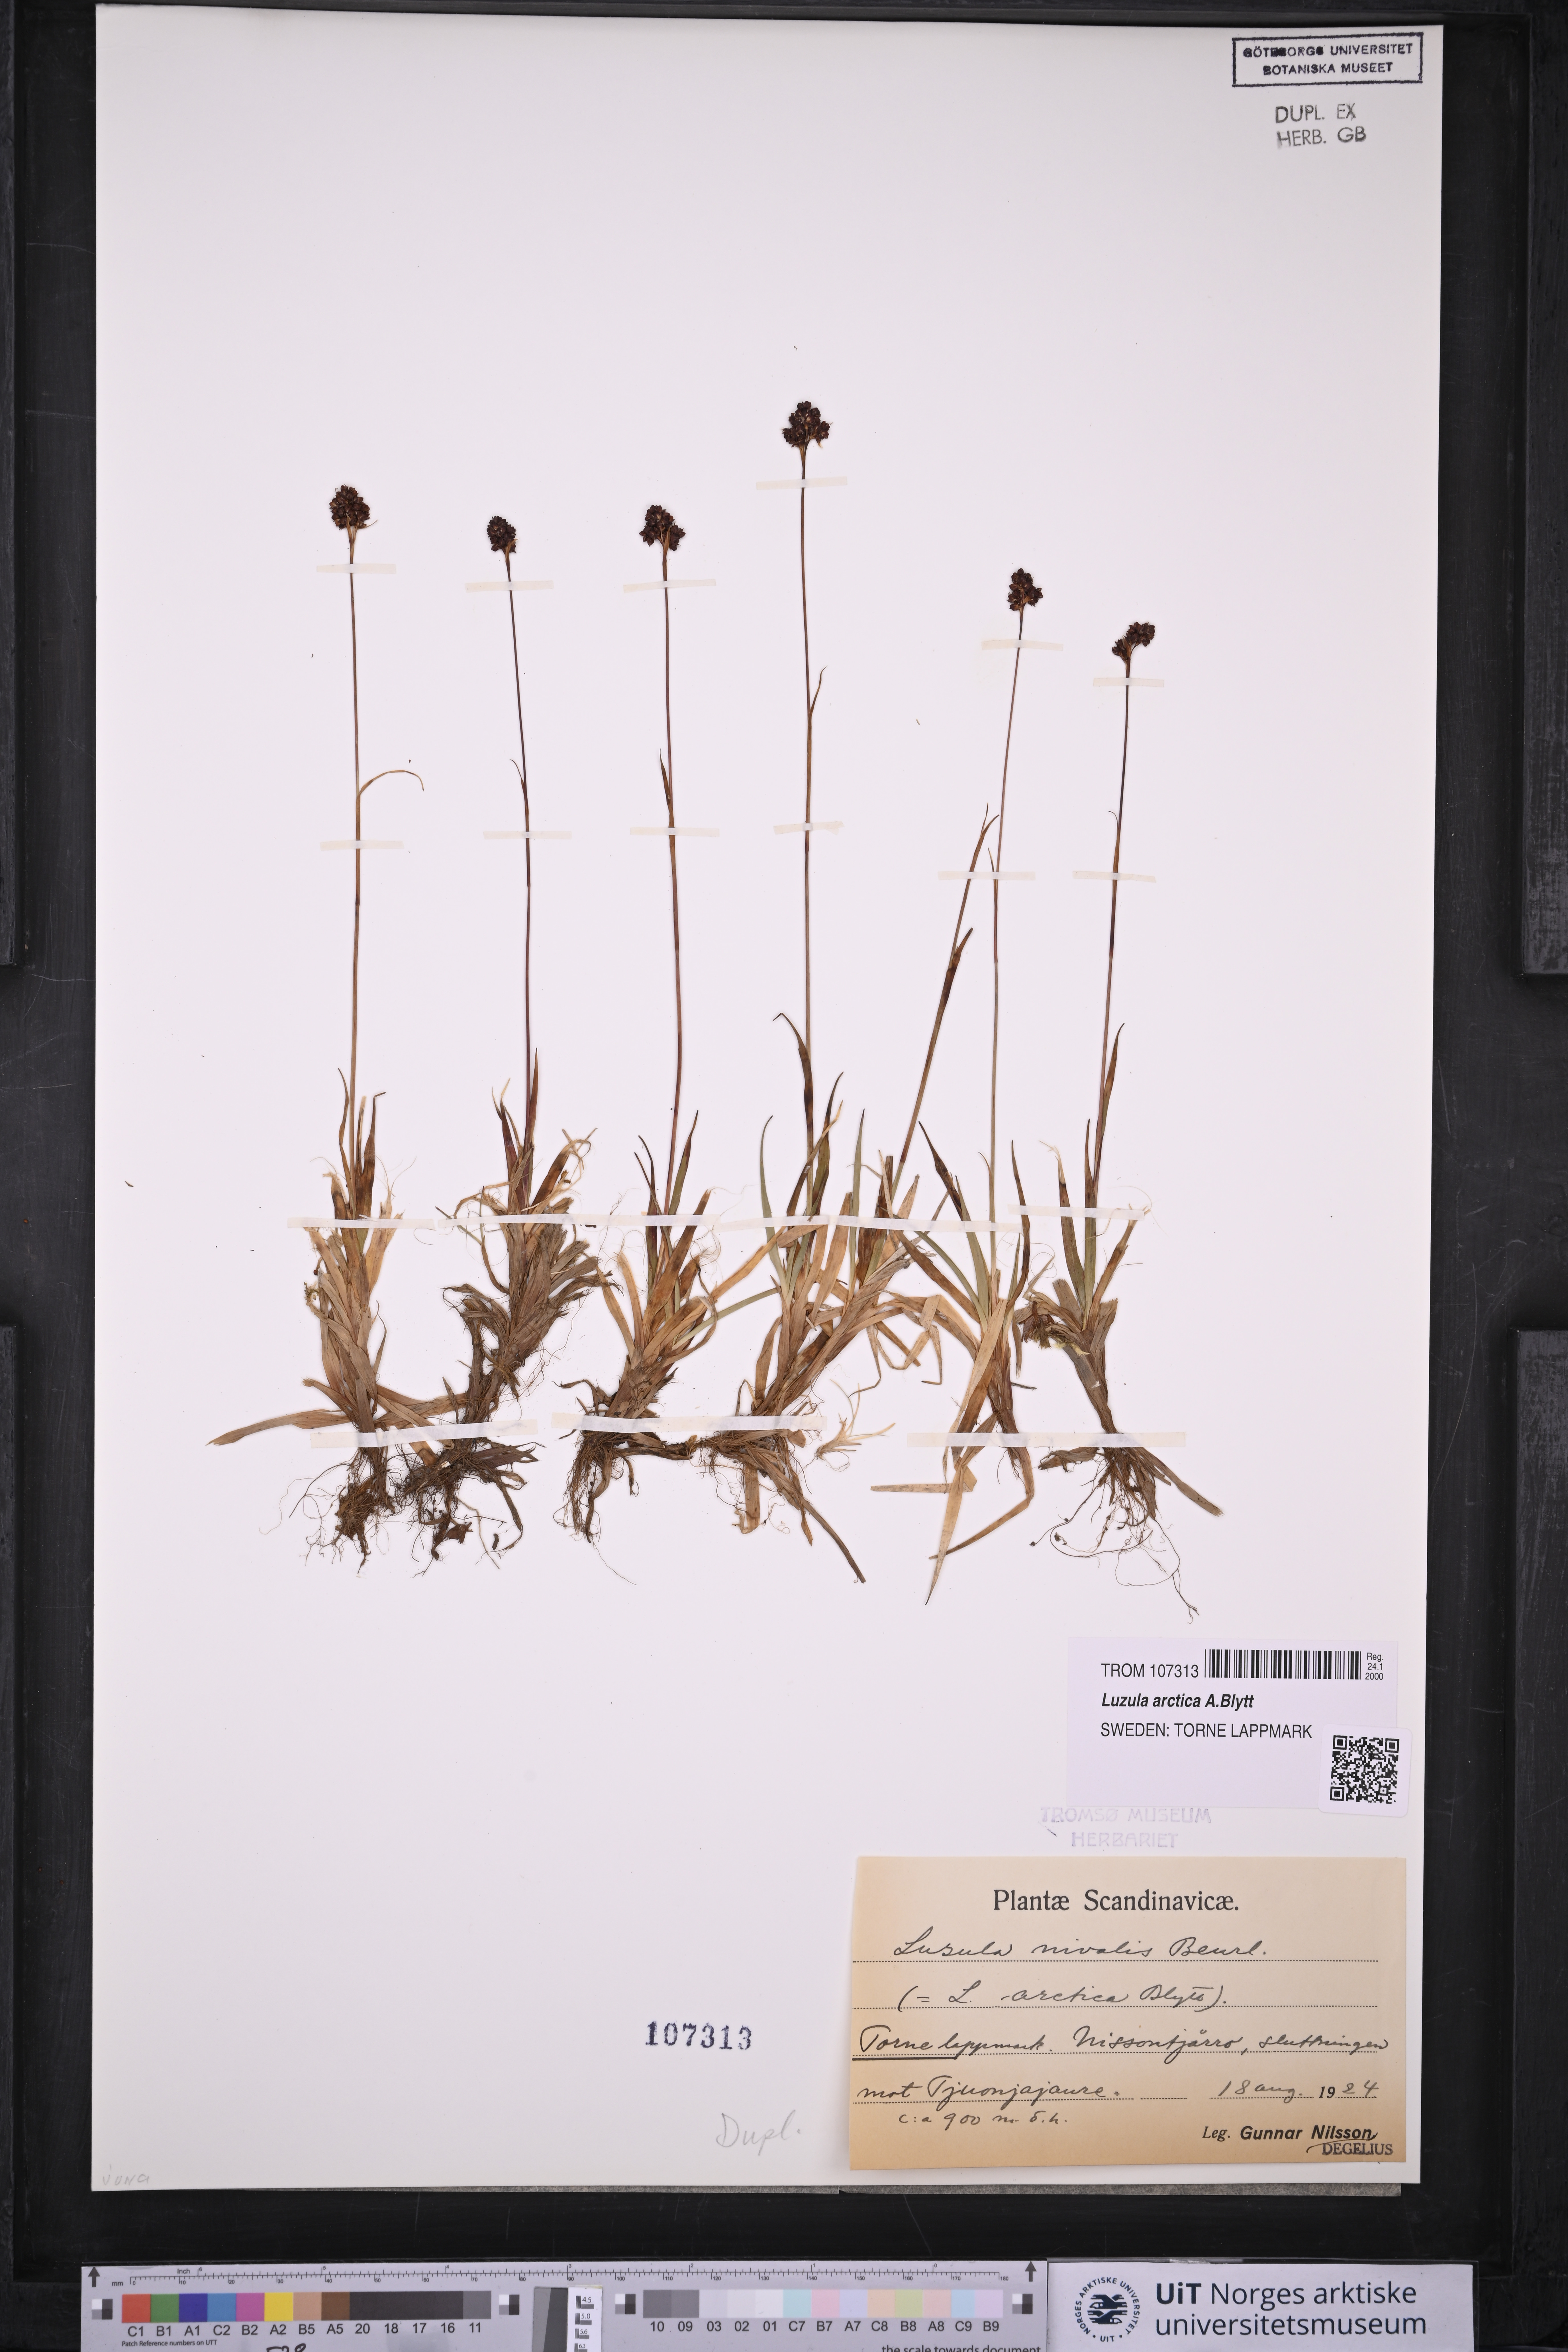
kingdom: Plantae
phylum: Tracheophyta
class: Liliopsida
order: Poales
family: Juncaceae
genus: Luzula
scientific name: Luzula nivalis
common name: Arctic woodrush
